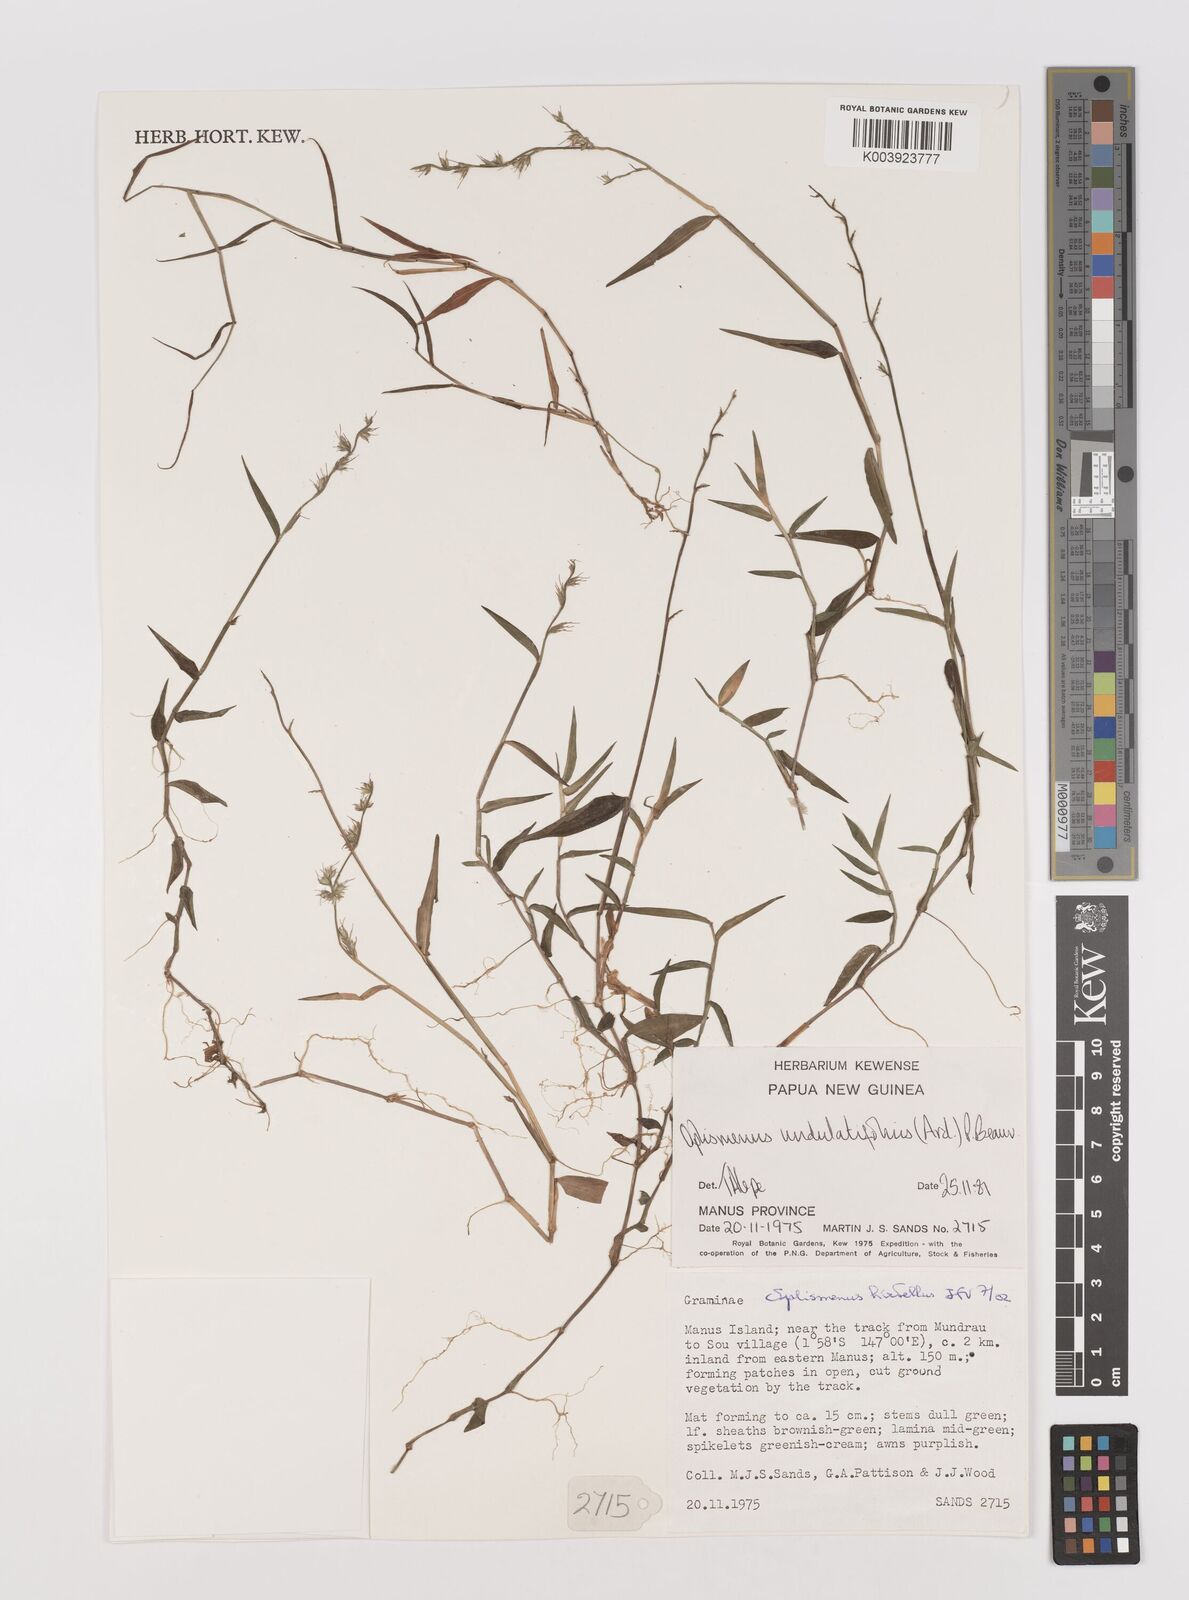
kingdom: Plantae
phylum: Tracheophyta
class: Liliopsida
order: Poales
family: Poaceae
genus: Oplismenus
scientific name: Oplismenus hirtellus
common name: Basketgrass
